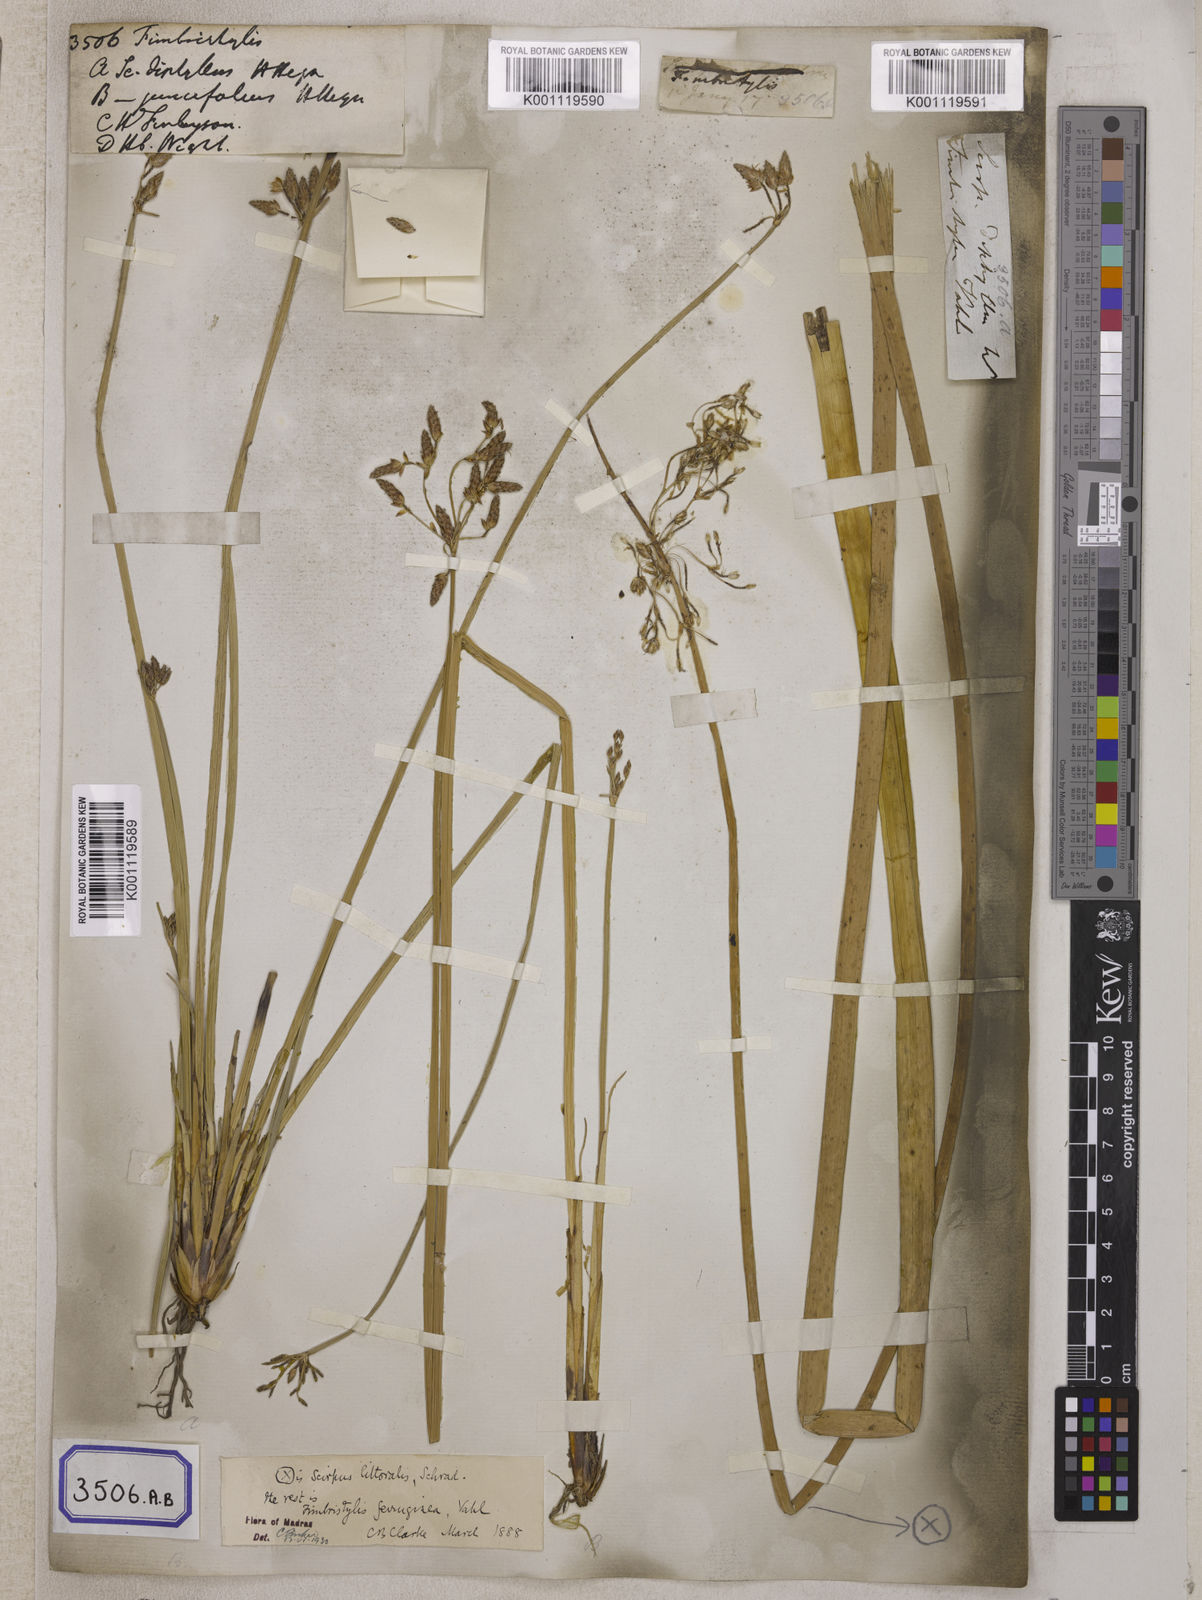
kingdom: Plantae
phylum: Tracheophyta
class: Liliopsida
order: Poales
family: Cyperaceae
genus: Fimbristylis
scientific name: Fimbristylis
